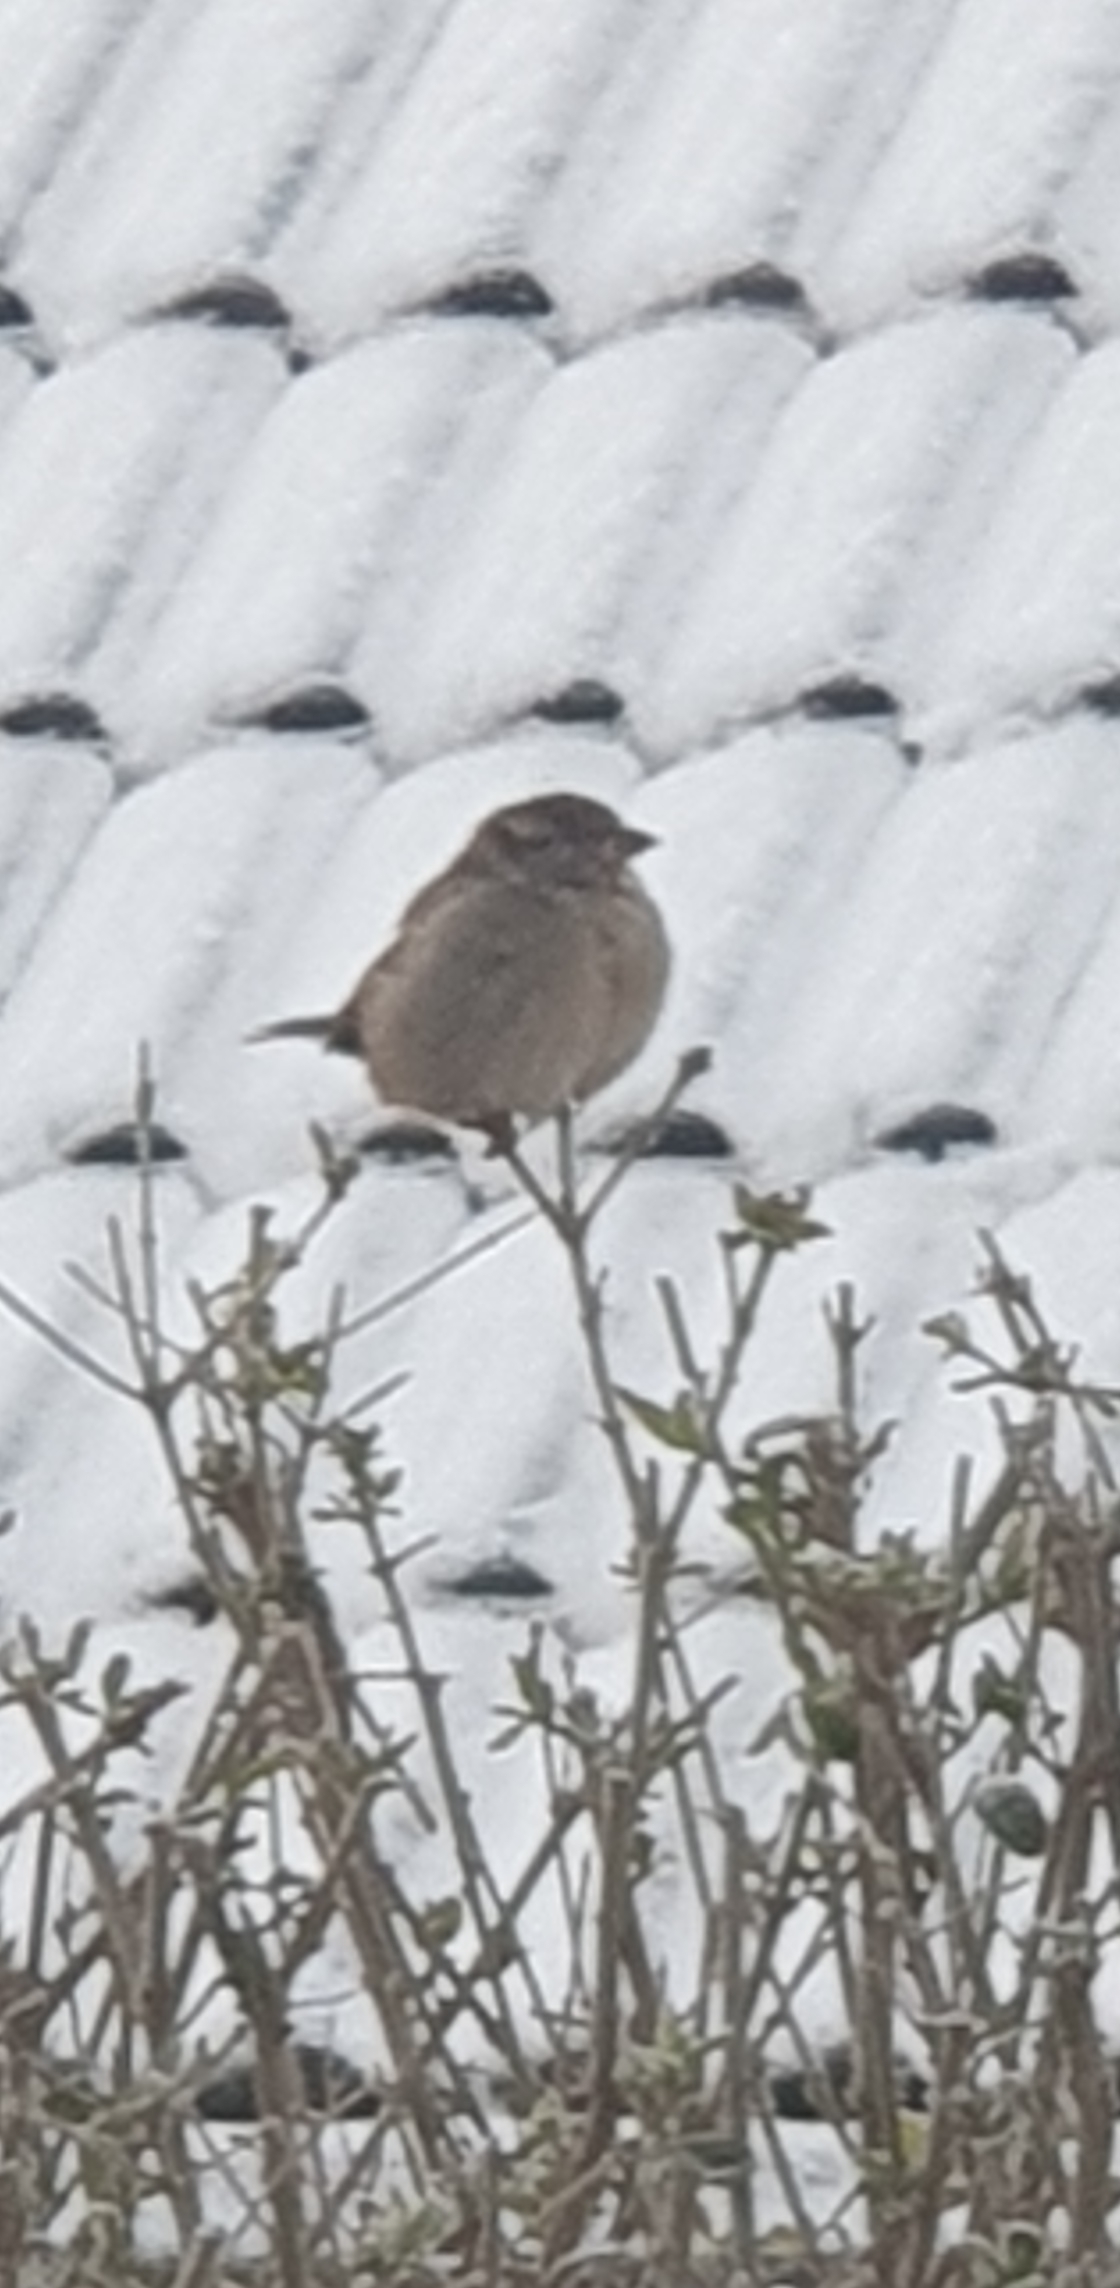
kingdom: Animalia
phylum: Chordata
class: Aves
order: Passeriformes
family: Passeridae
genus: Passer
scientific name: Passer domesticus
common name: Gråspurv
